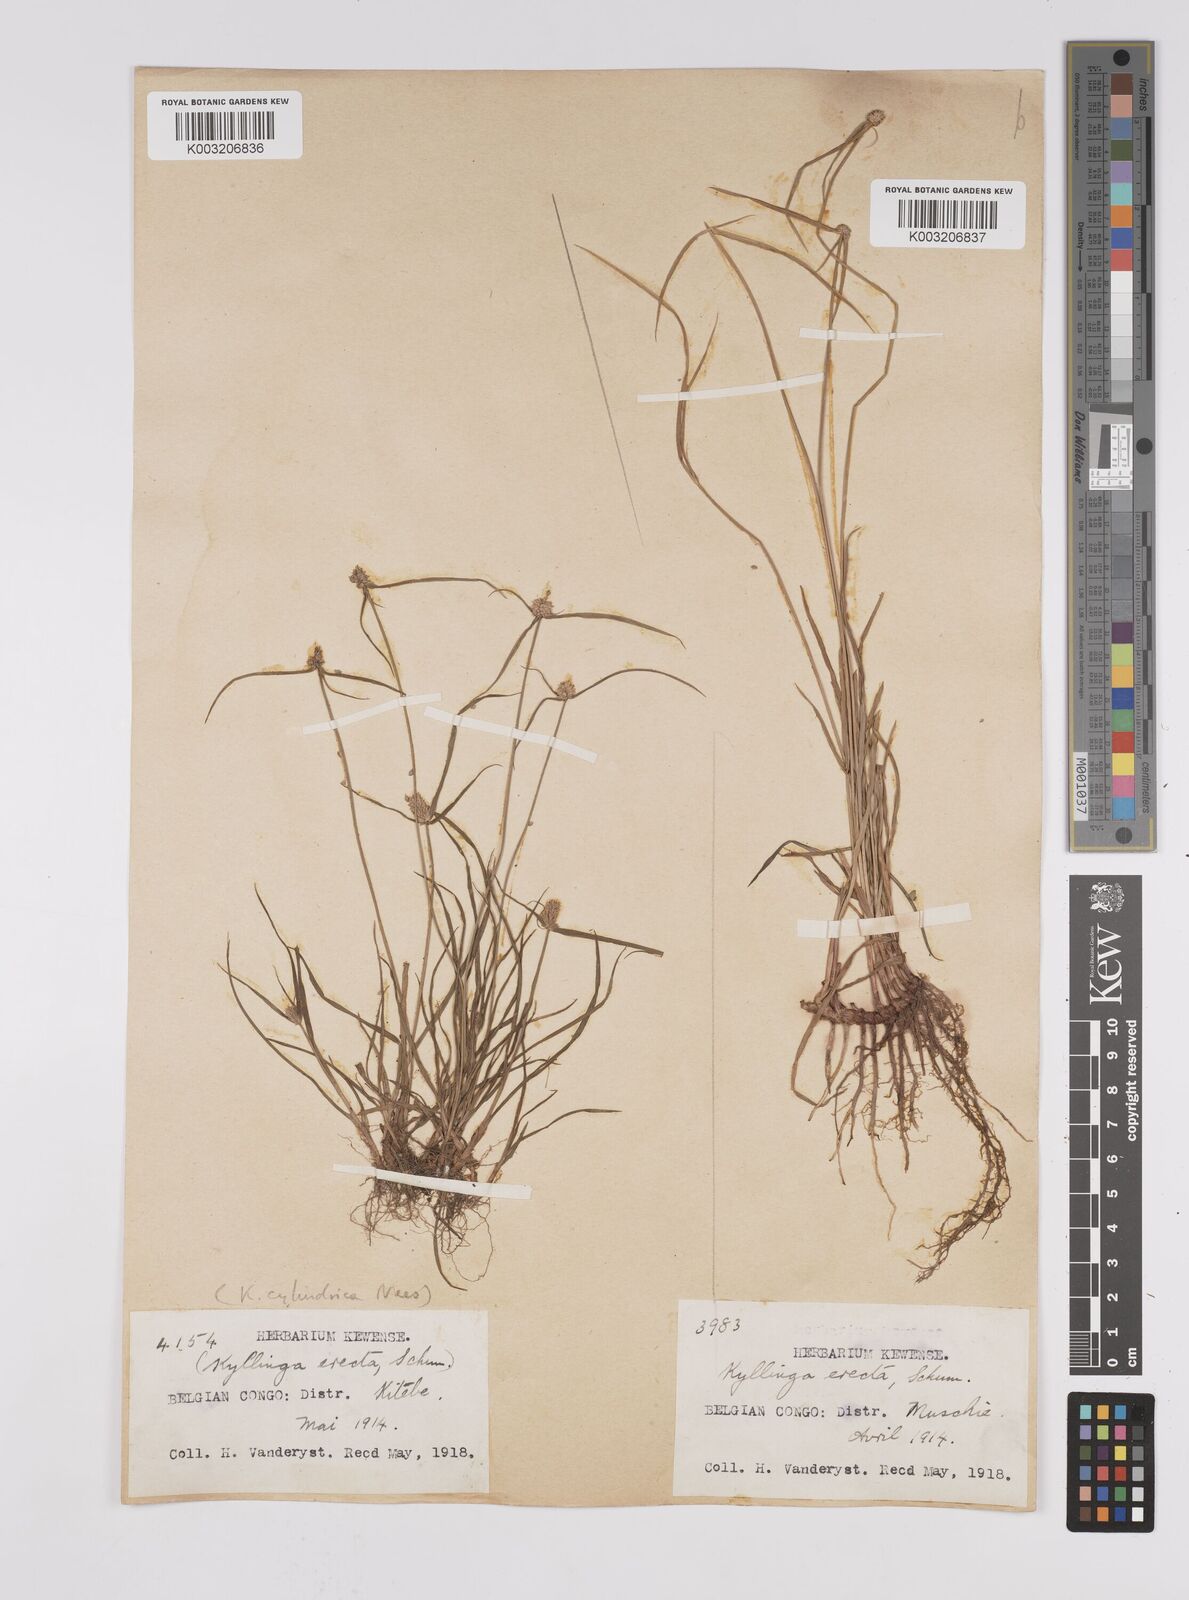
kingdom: Plantae
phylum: Tracheophyta
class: Liliopsida
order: Poales
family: Cyperaceae
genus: Cyperus
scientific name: Cyperus erectus
